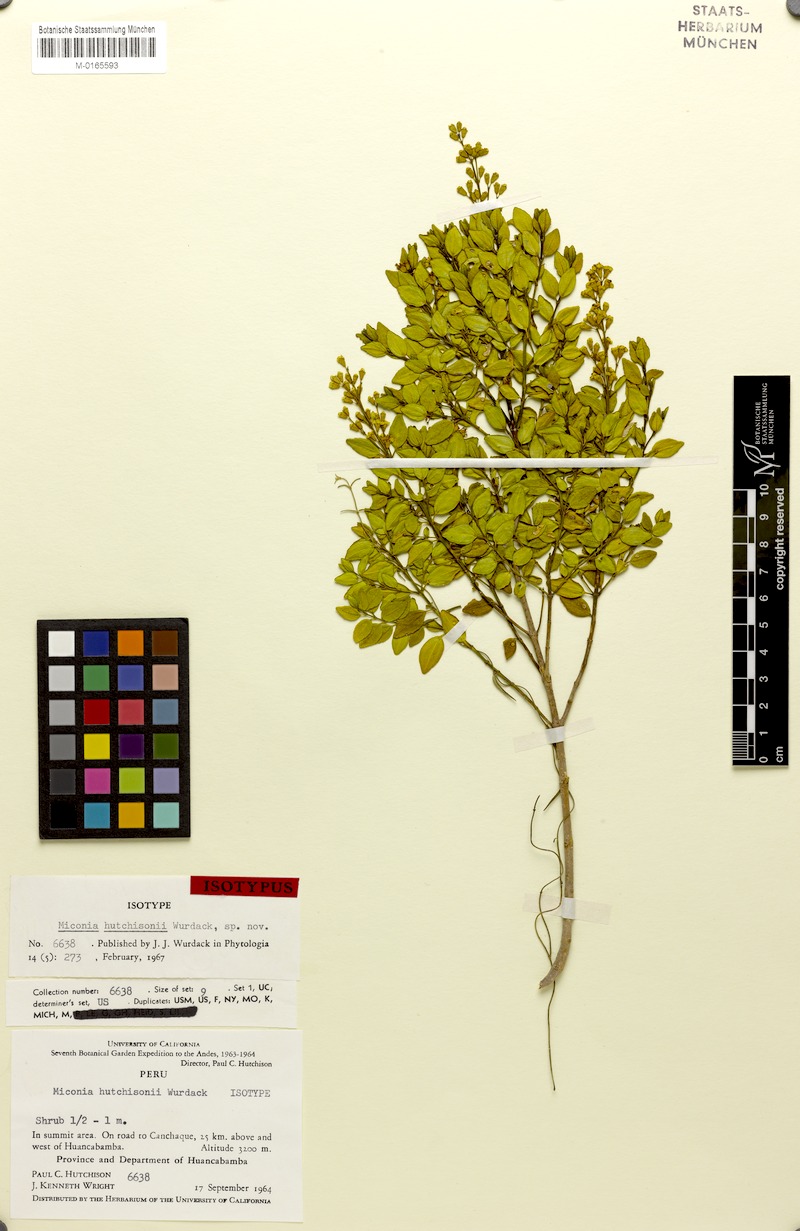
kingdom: Plantae
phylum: Tracheophyta
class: Magnoliopsida
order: Myrtales
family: Melastomataceae
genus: Miconia
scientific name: Miconia hutchisonii
